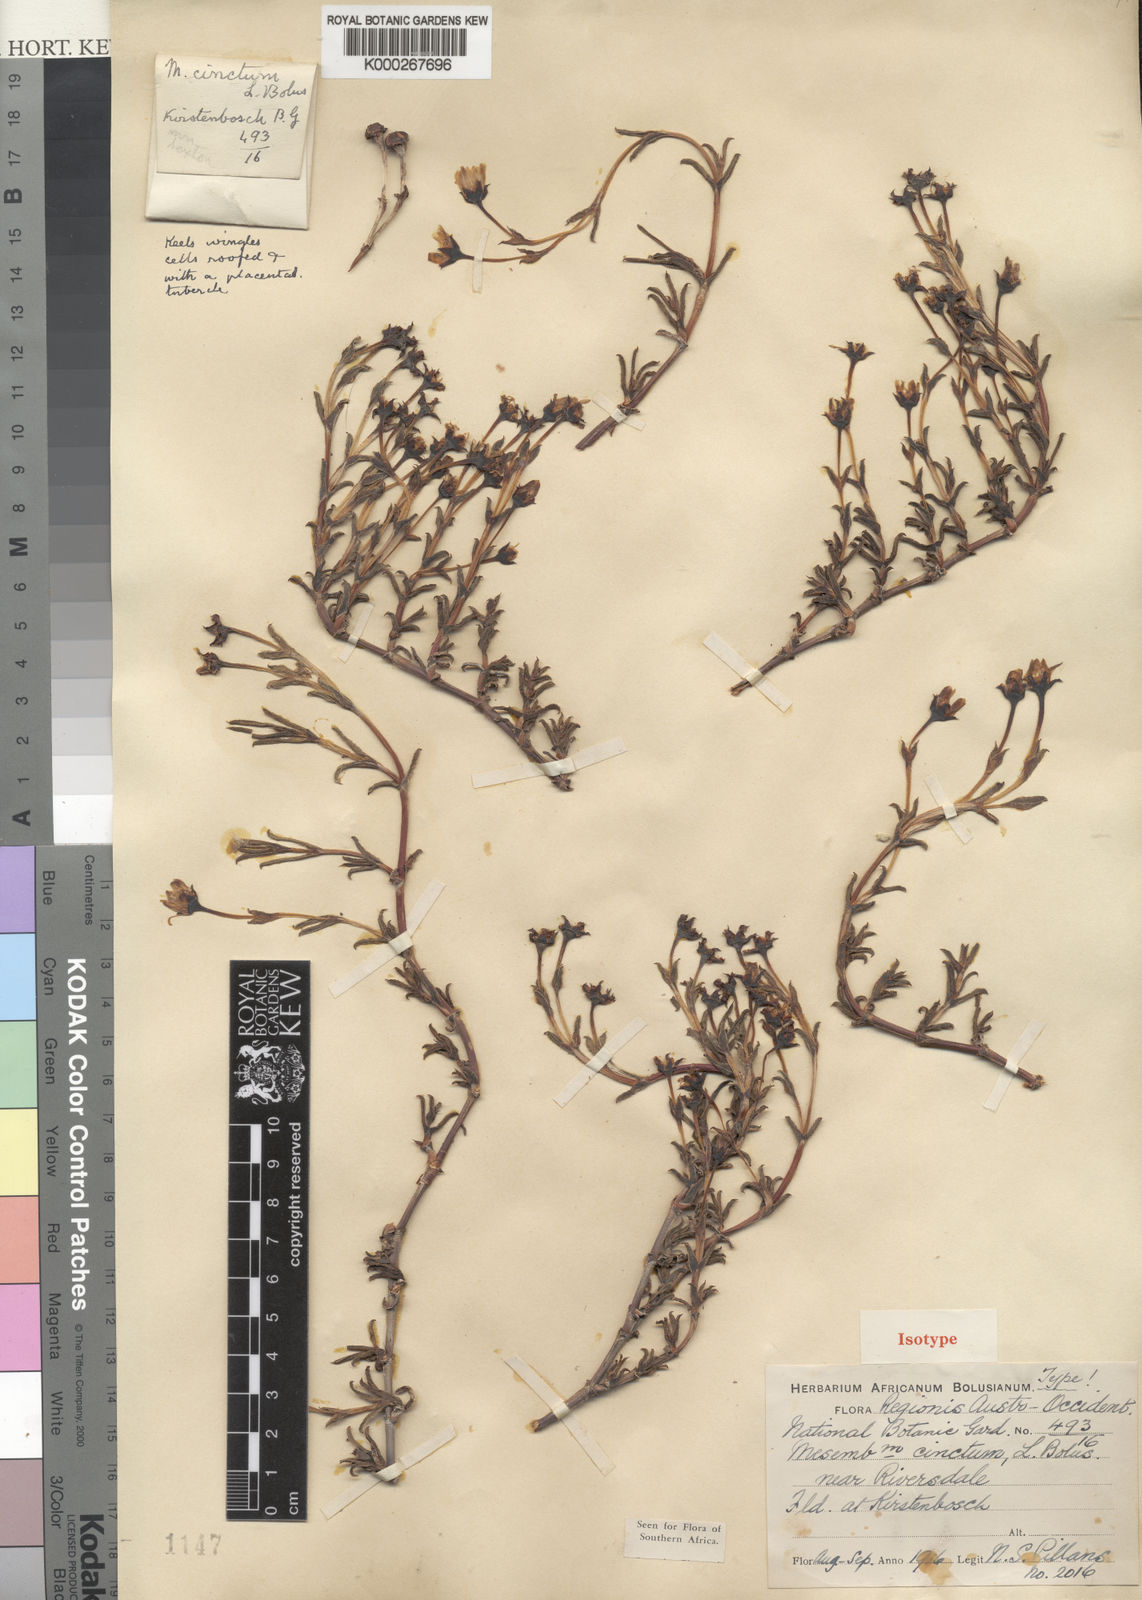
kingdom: Plantae
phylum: Tracheophyta
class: Magnoliopsida
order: Caryophyllales
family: Aizoaceae
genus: Ruschia
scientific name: Ruschia cincta
